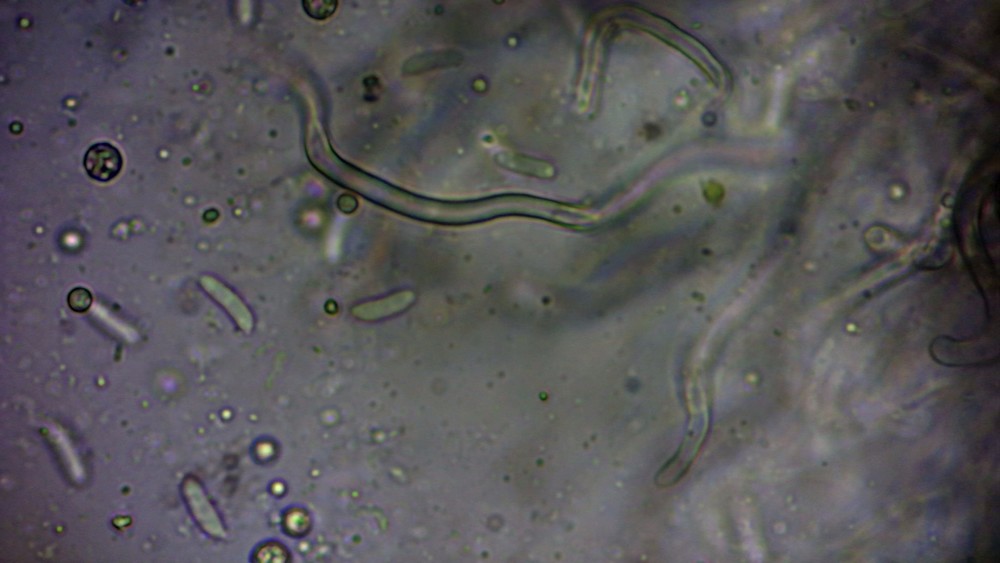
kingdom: Fungi
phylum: Basidiomycota
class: Agaricomycetes
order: Agaricales
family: Schizophyllaceae
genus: Schizophyllum
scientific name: Schizophyllum amplum
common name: poppel-hængeøre
